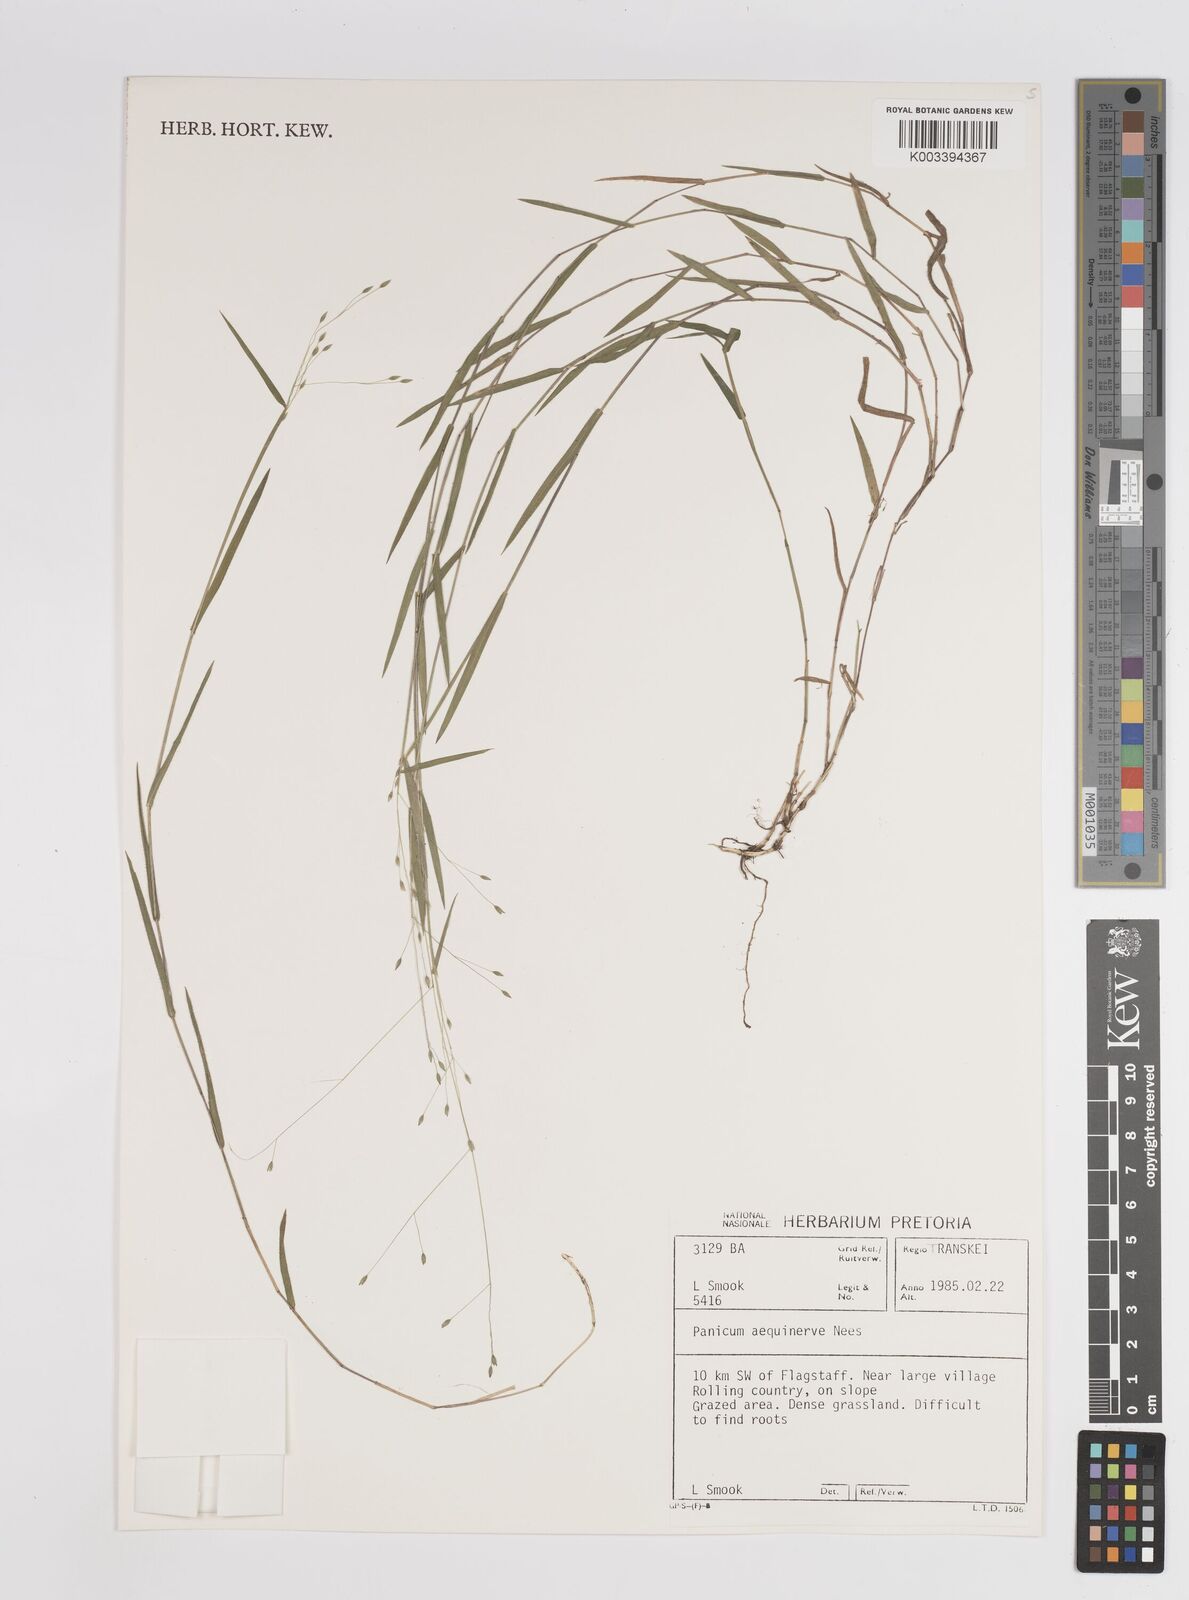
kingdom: Plantae
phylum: Tracheophyta
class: Liliopsida
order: Poales
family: Poaceae
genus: Panicum
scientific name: Panicum aequinerve
